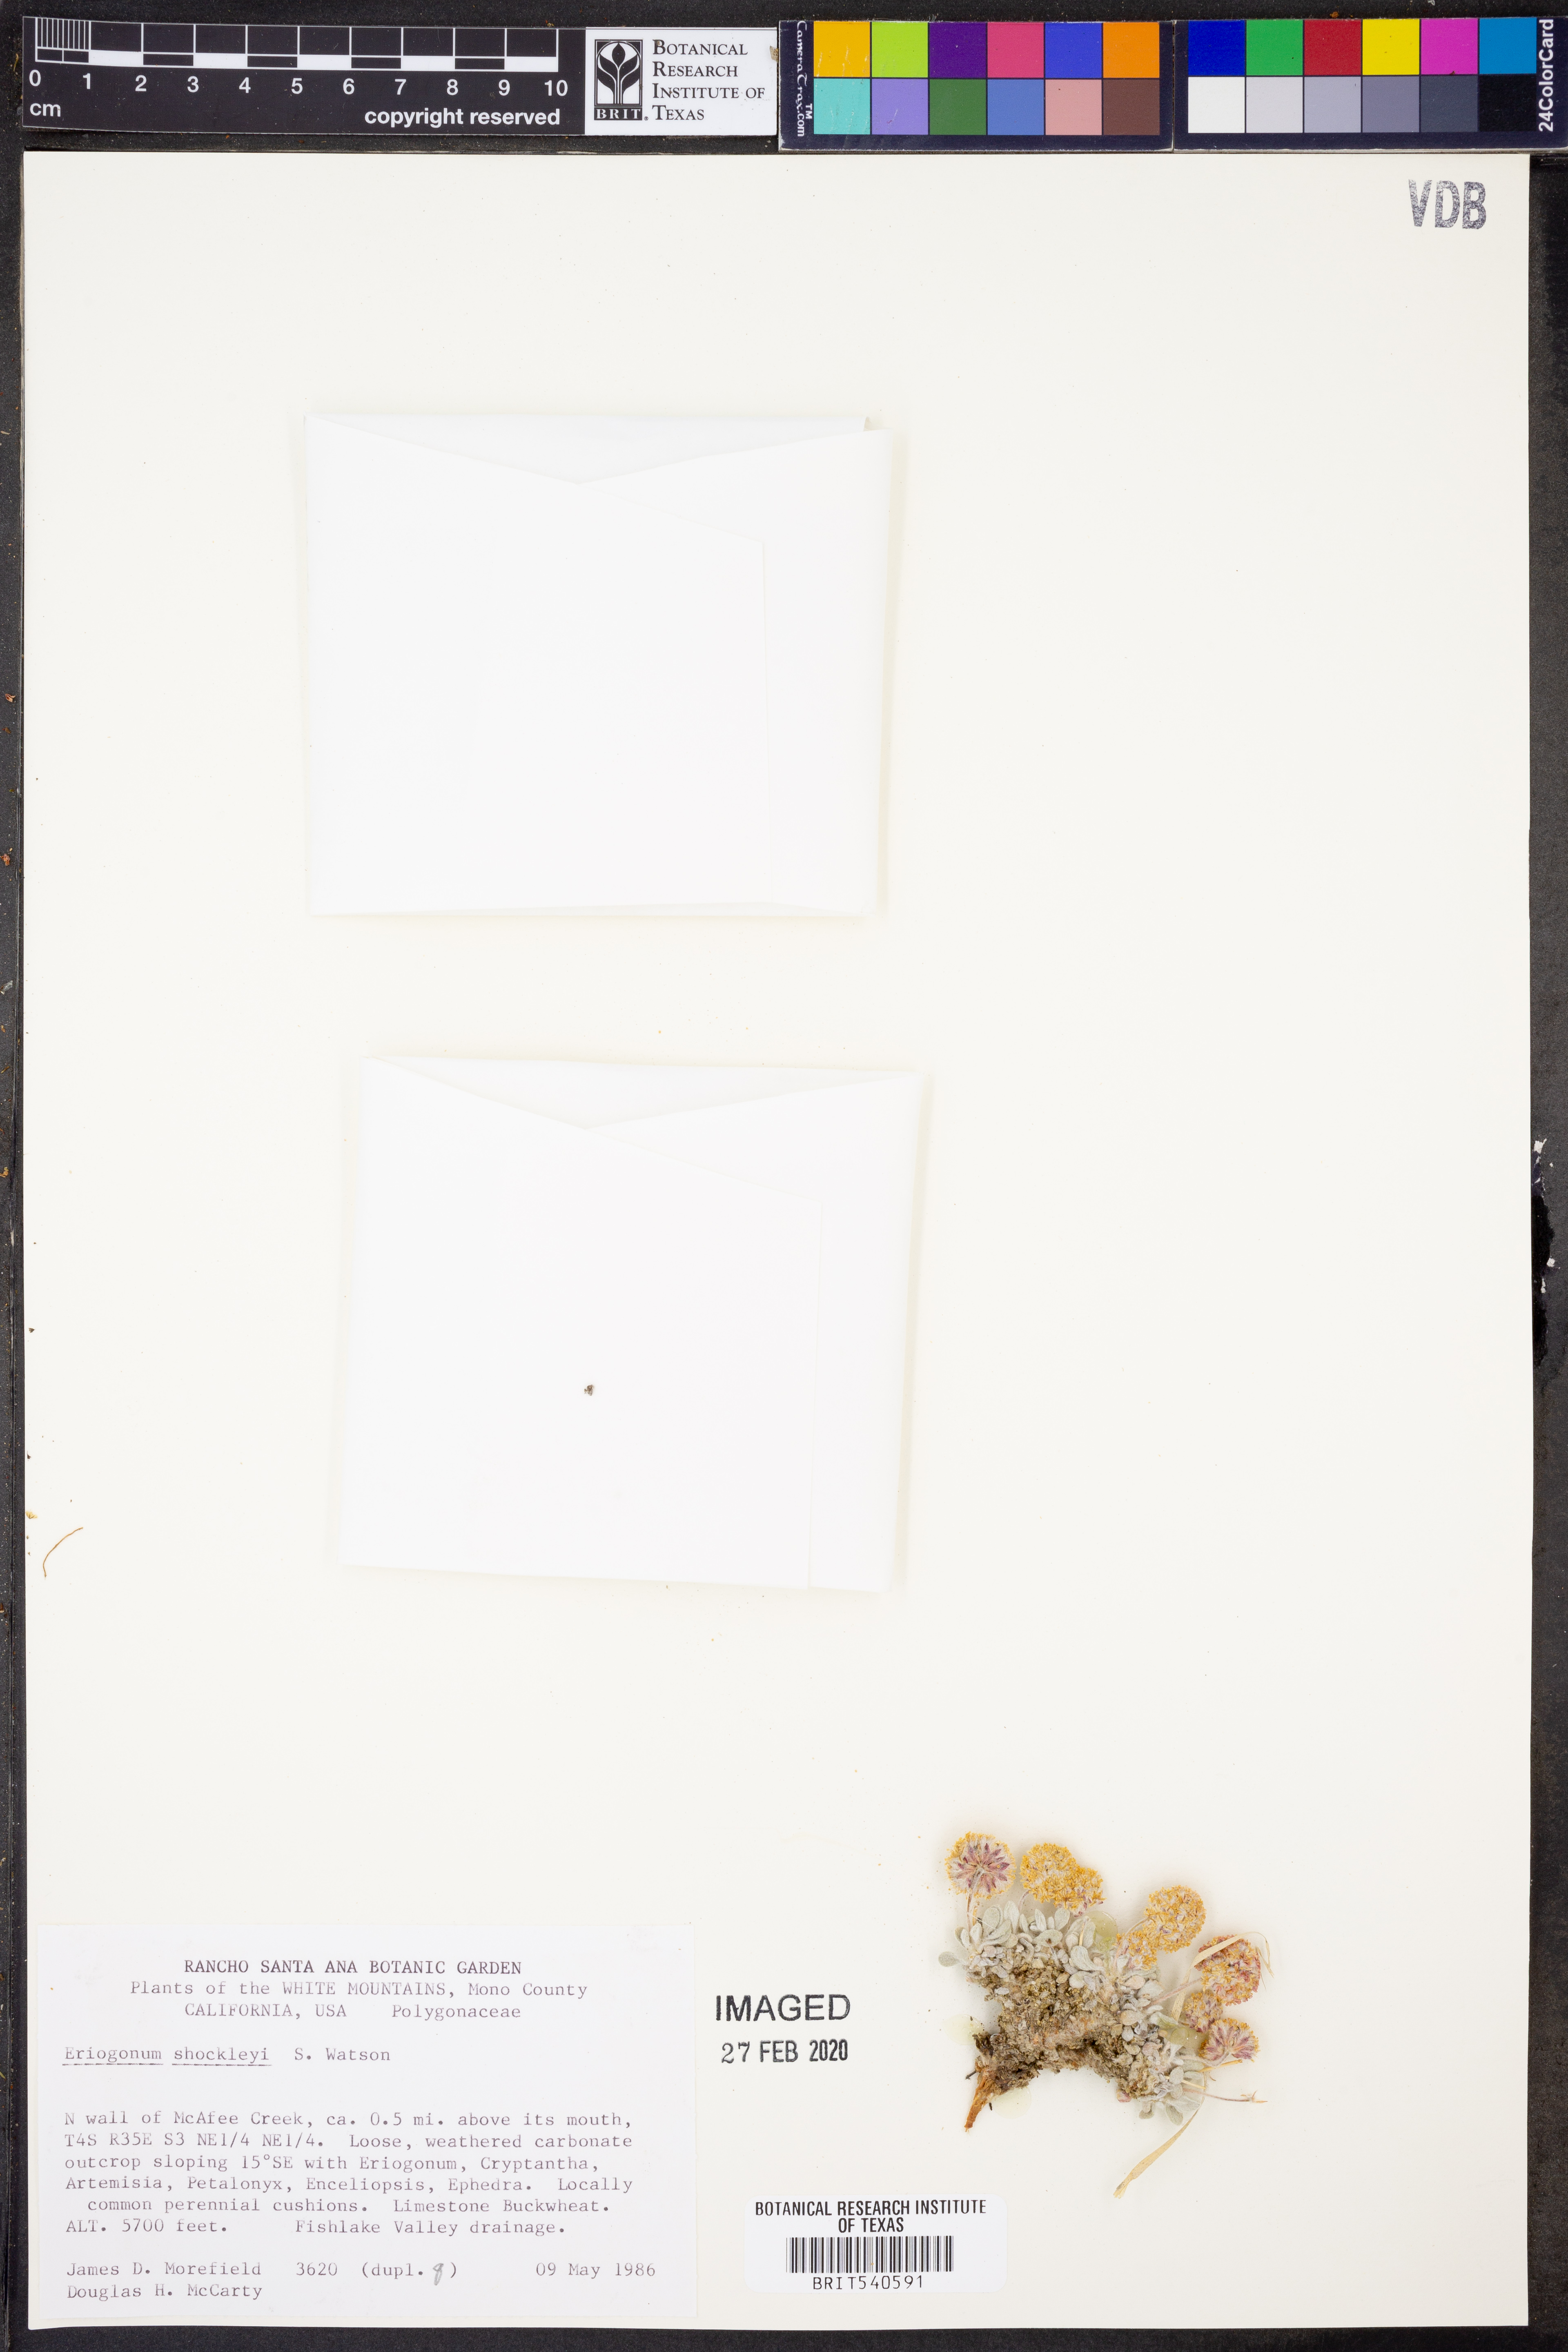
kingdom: Plantae
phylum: Tracheophyta
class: Magnoliopsida
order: Caryophyllales
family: Polygonaceae
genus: Eriogonum
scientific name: Eriogonum shockleyi
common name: Shockley's wild buckwheat
